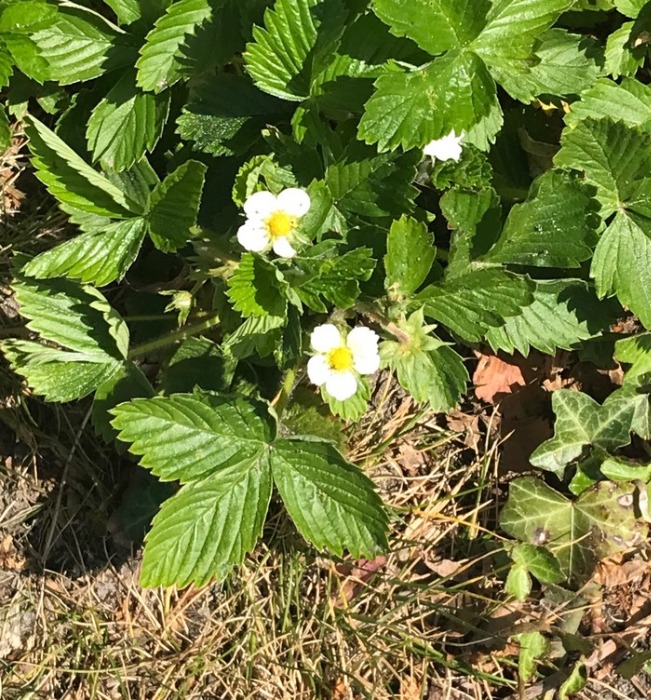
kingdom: Plantae
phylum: Tracheophyta
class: Magnoliopsida
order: Rosales
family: Rosaceae
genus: Fragaria
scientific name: Fragaria vesca
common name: Skov-jordbær
